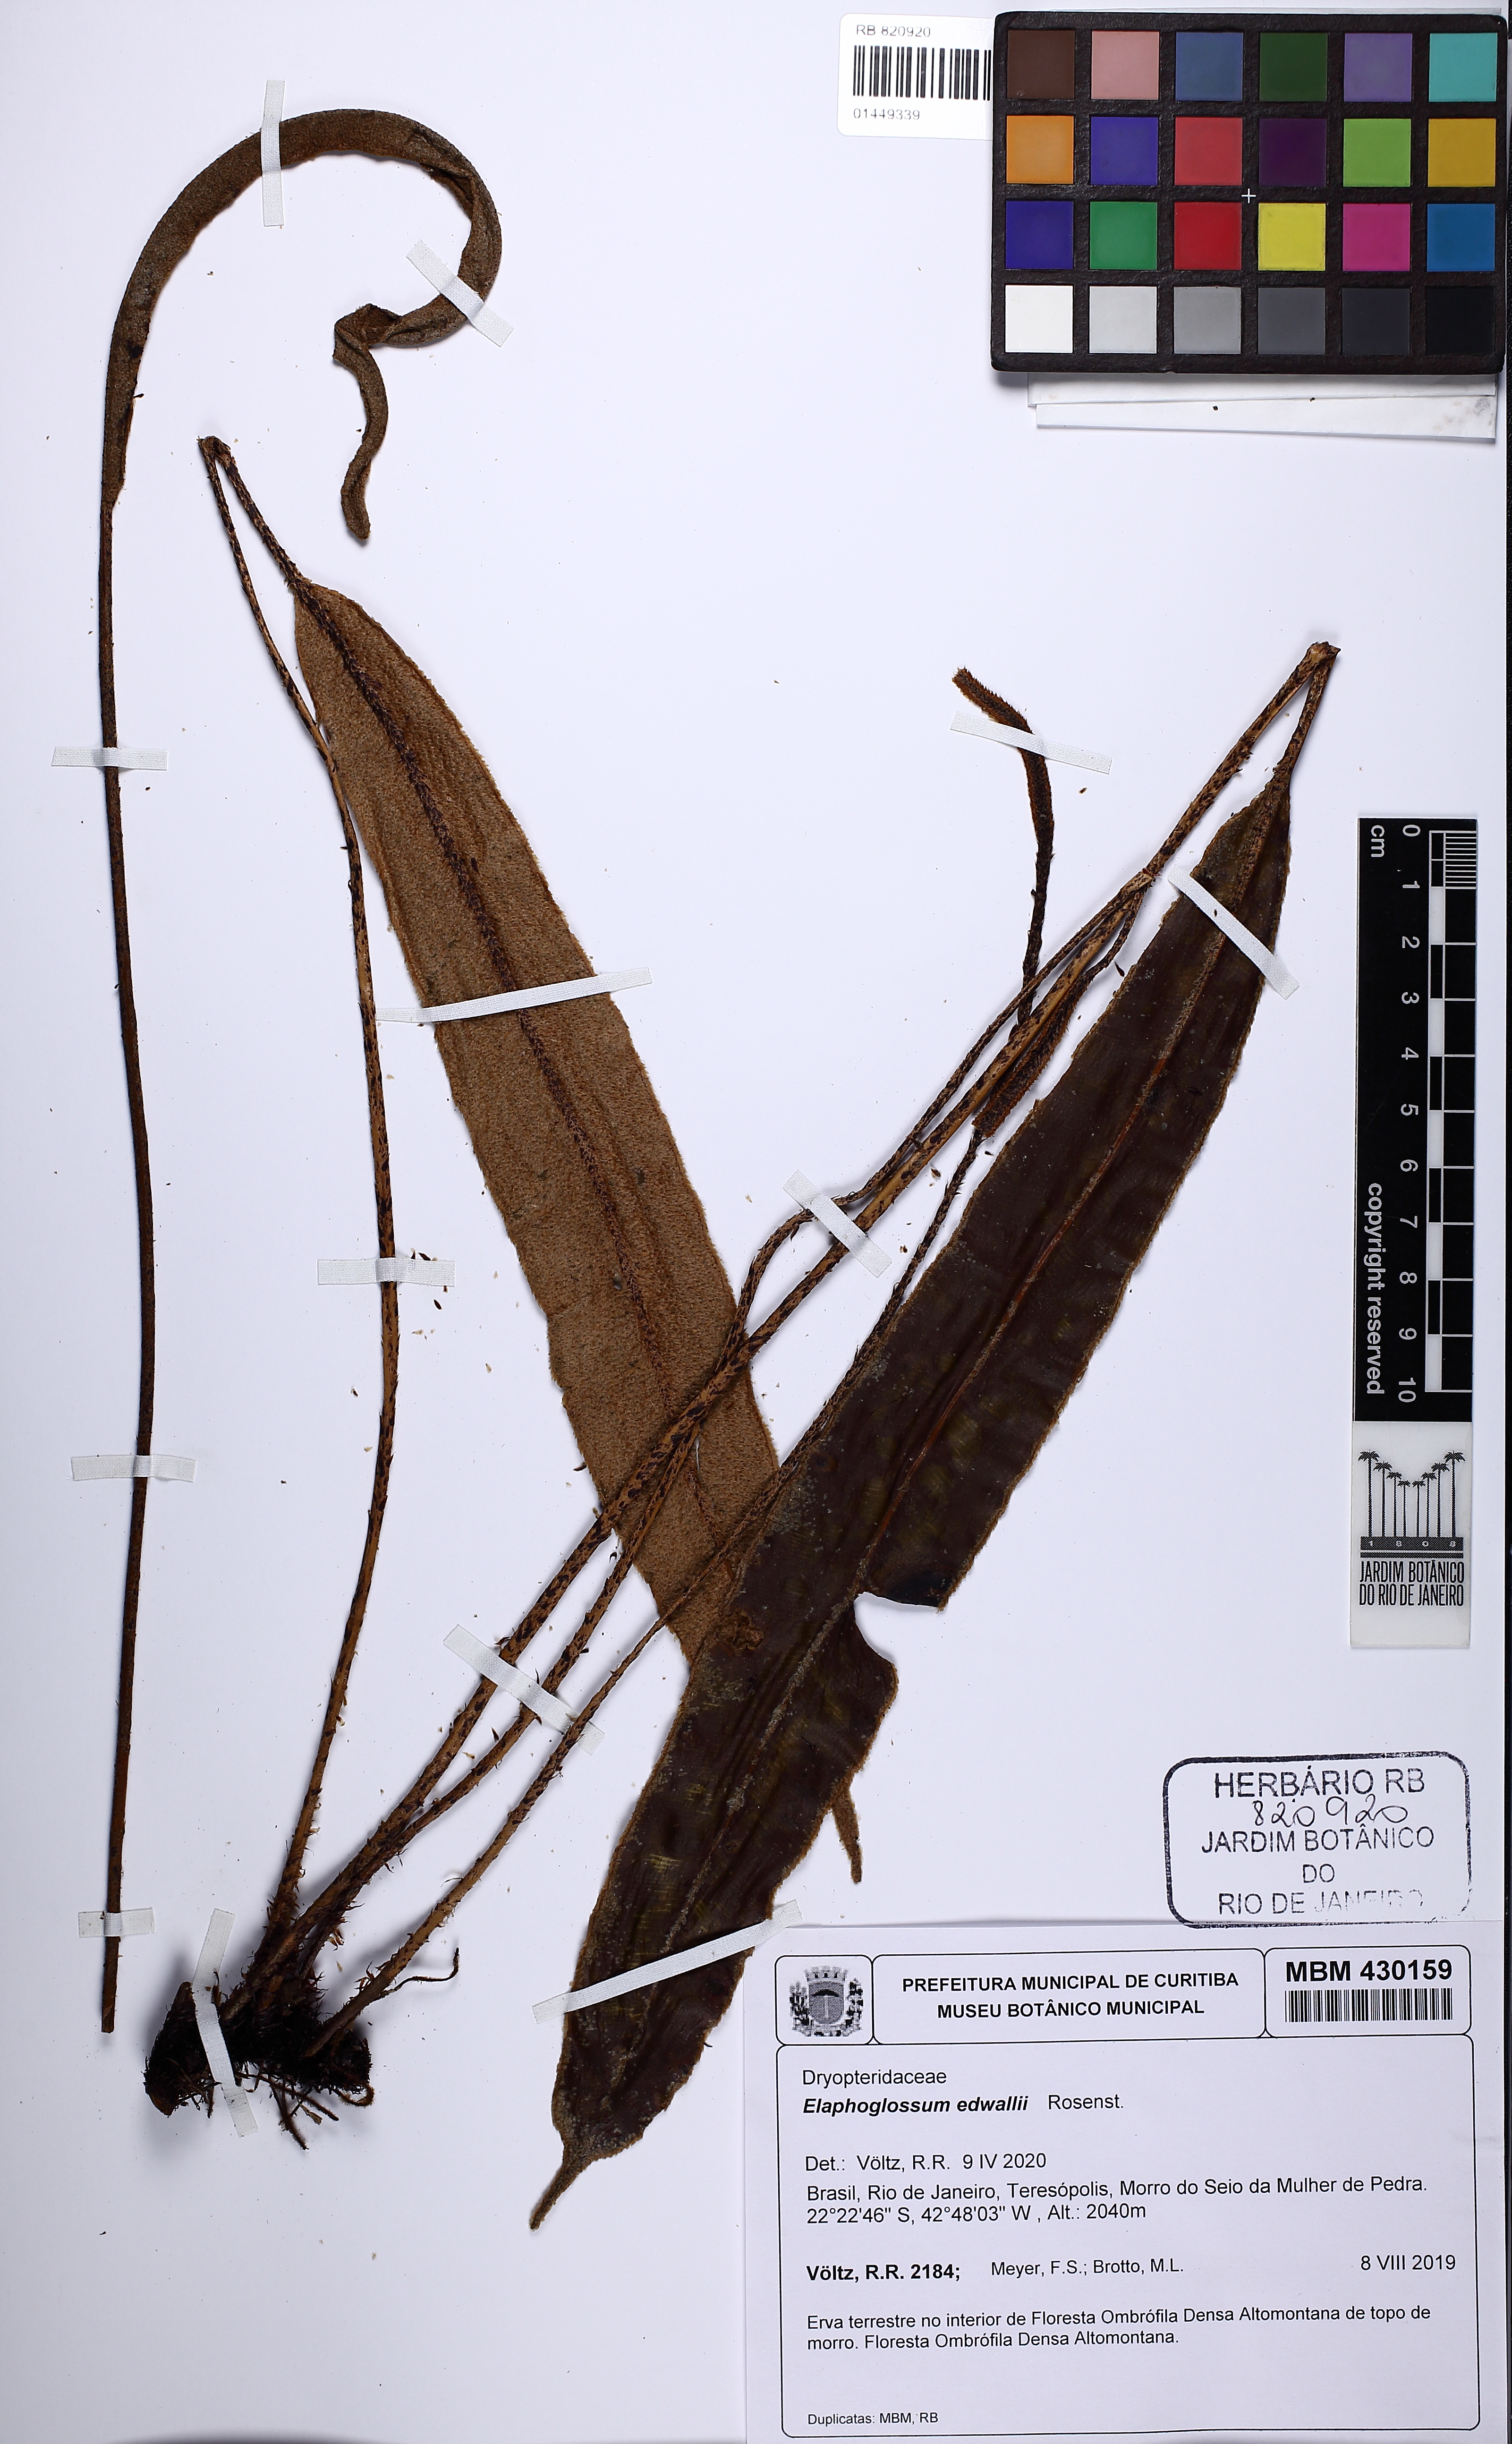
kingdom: Plantae
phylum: Tracheophyta
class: Polypodiopsida
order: Polypodiales
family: Dryopteridaceae
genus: Elaphoglossum
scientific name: Elaphoglossum edwallii
